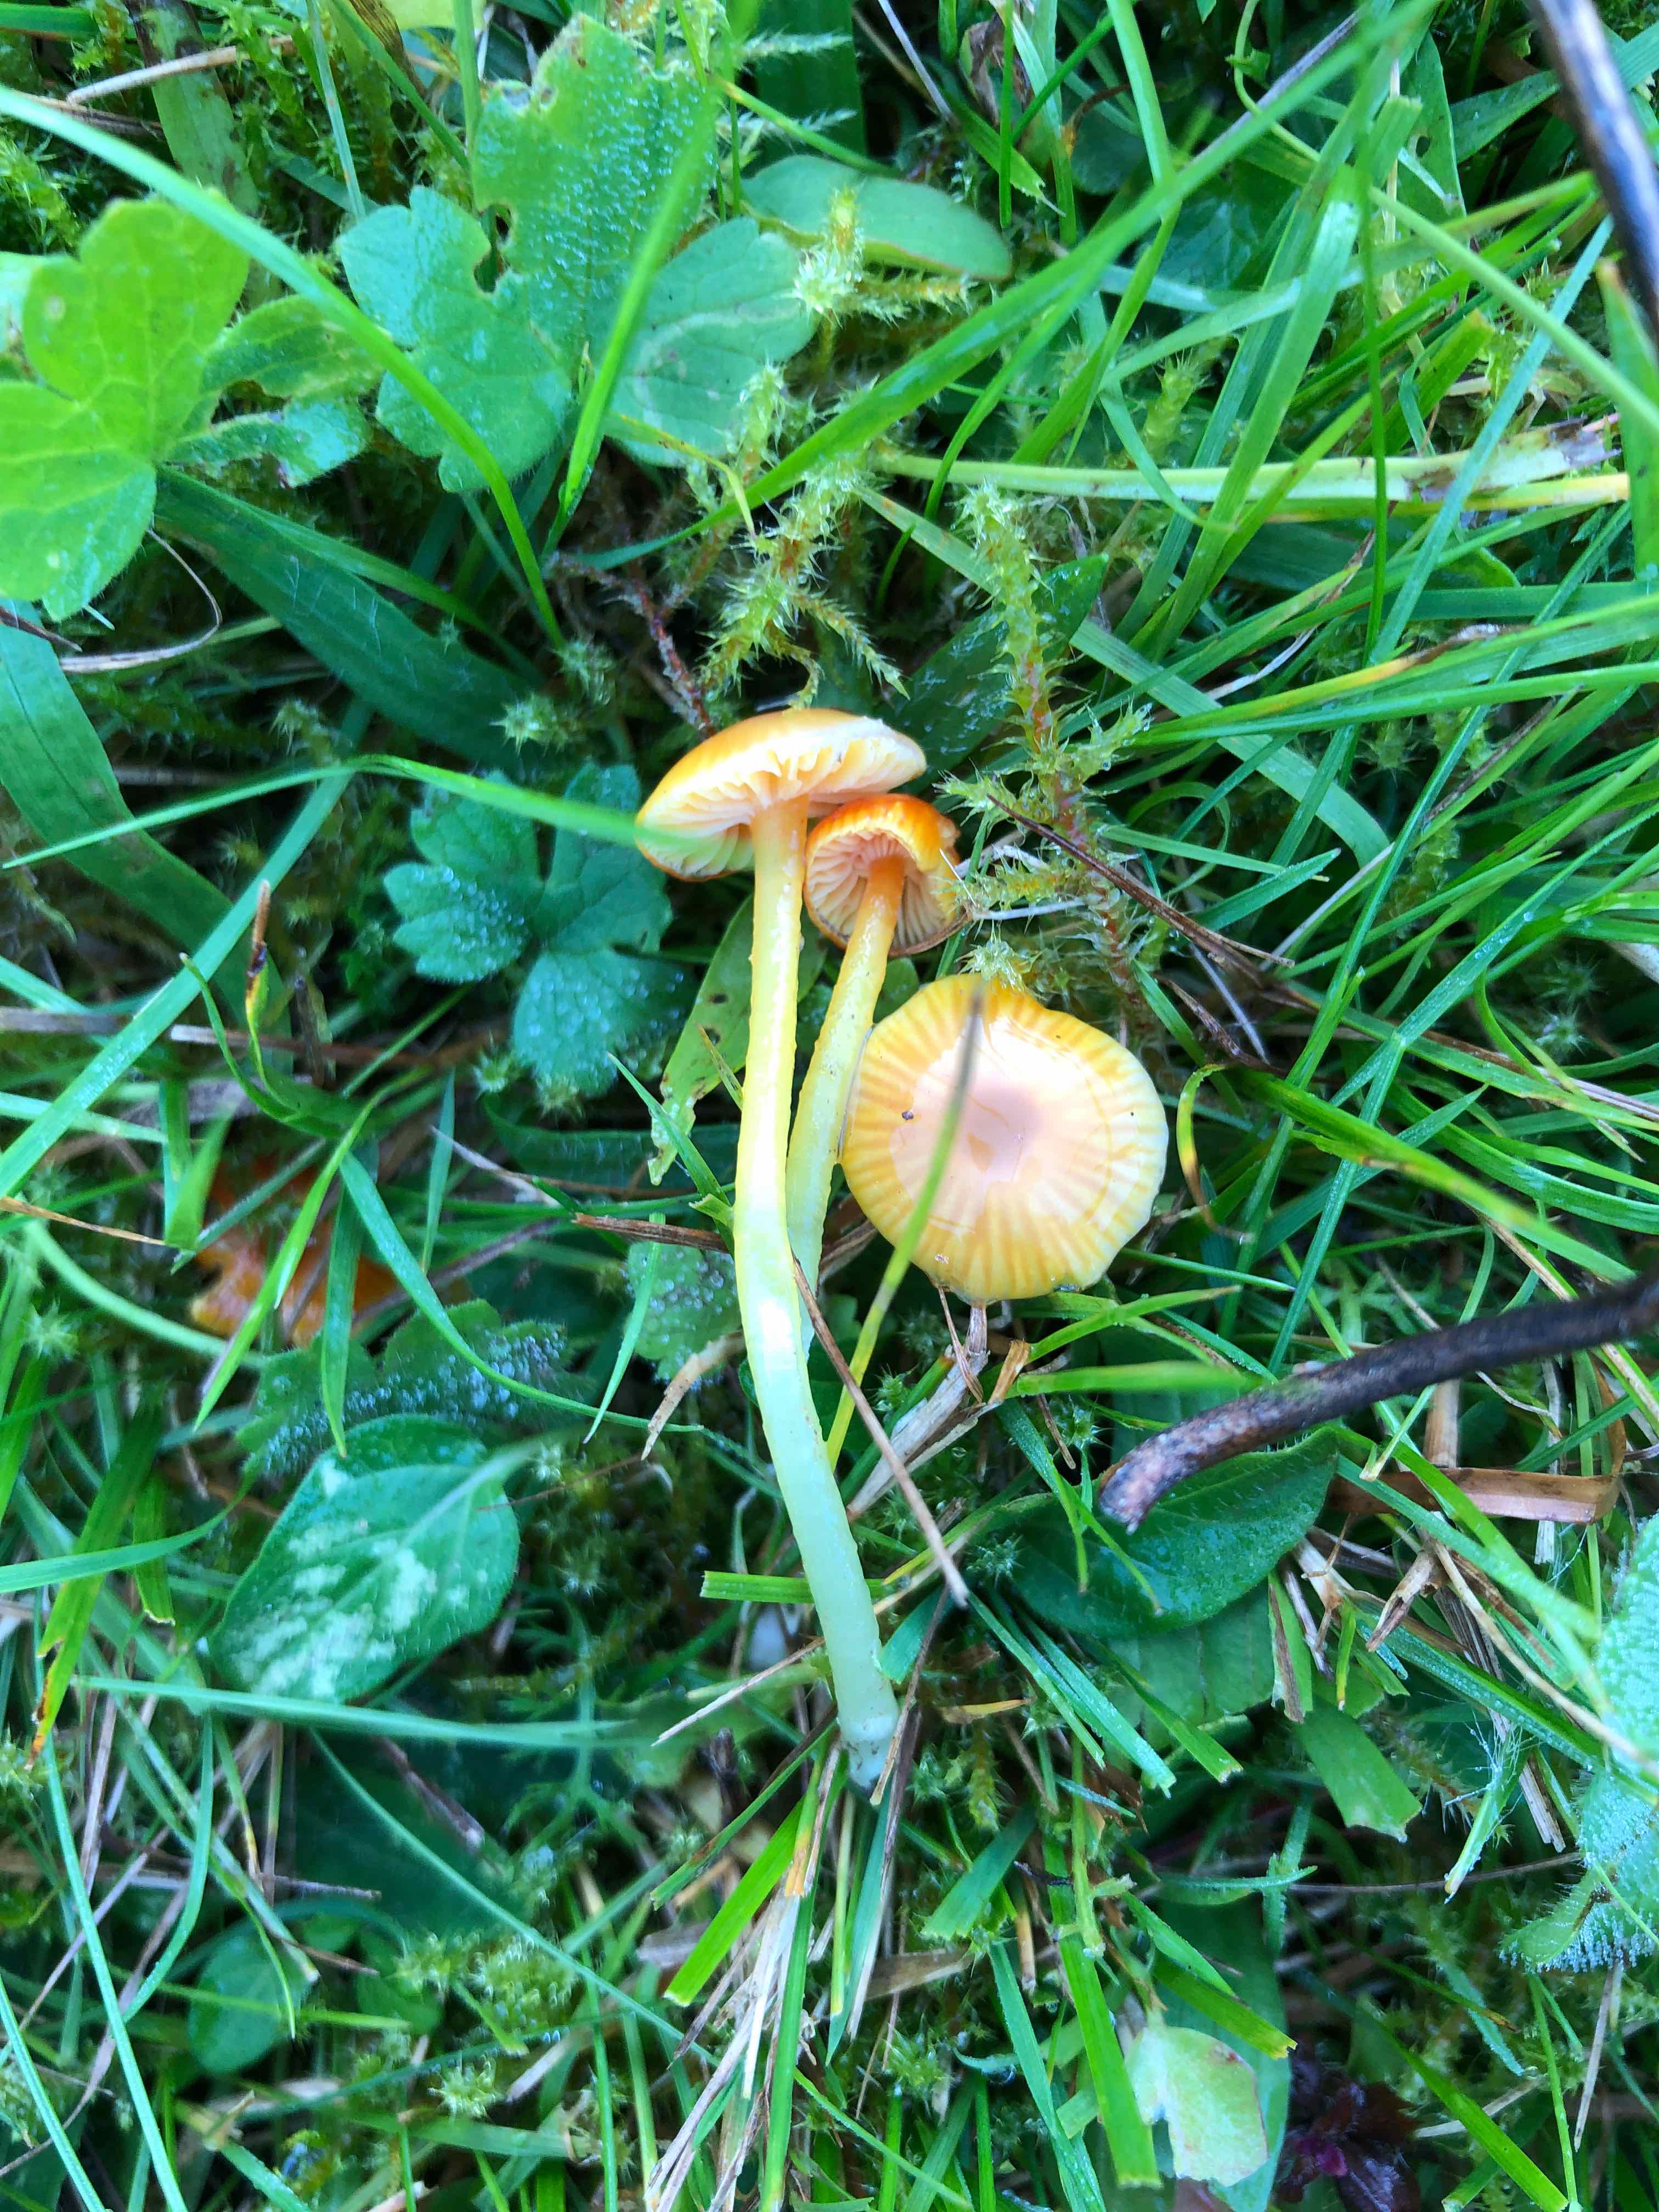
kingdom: Fungi
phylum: Basidiomycota
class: Agaricomycetes
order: Agaricales
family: Hygrophoraceae
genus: Hygrocybe
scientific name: Hygrocybe glutinipes
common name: slimstokket vokshat
